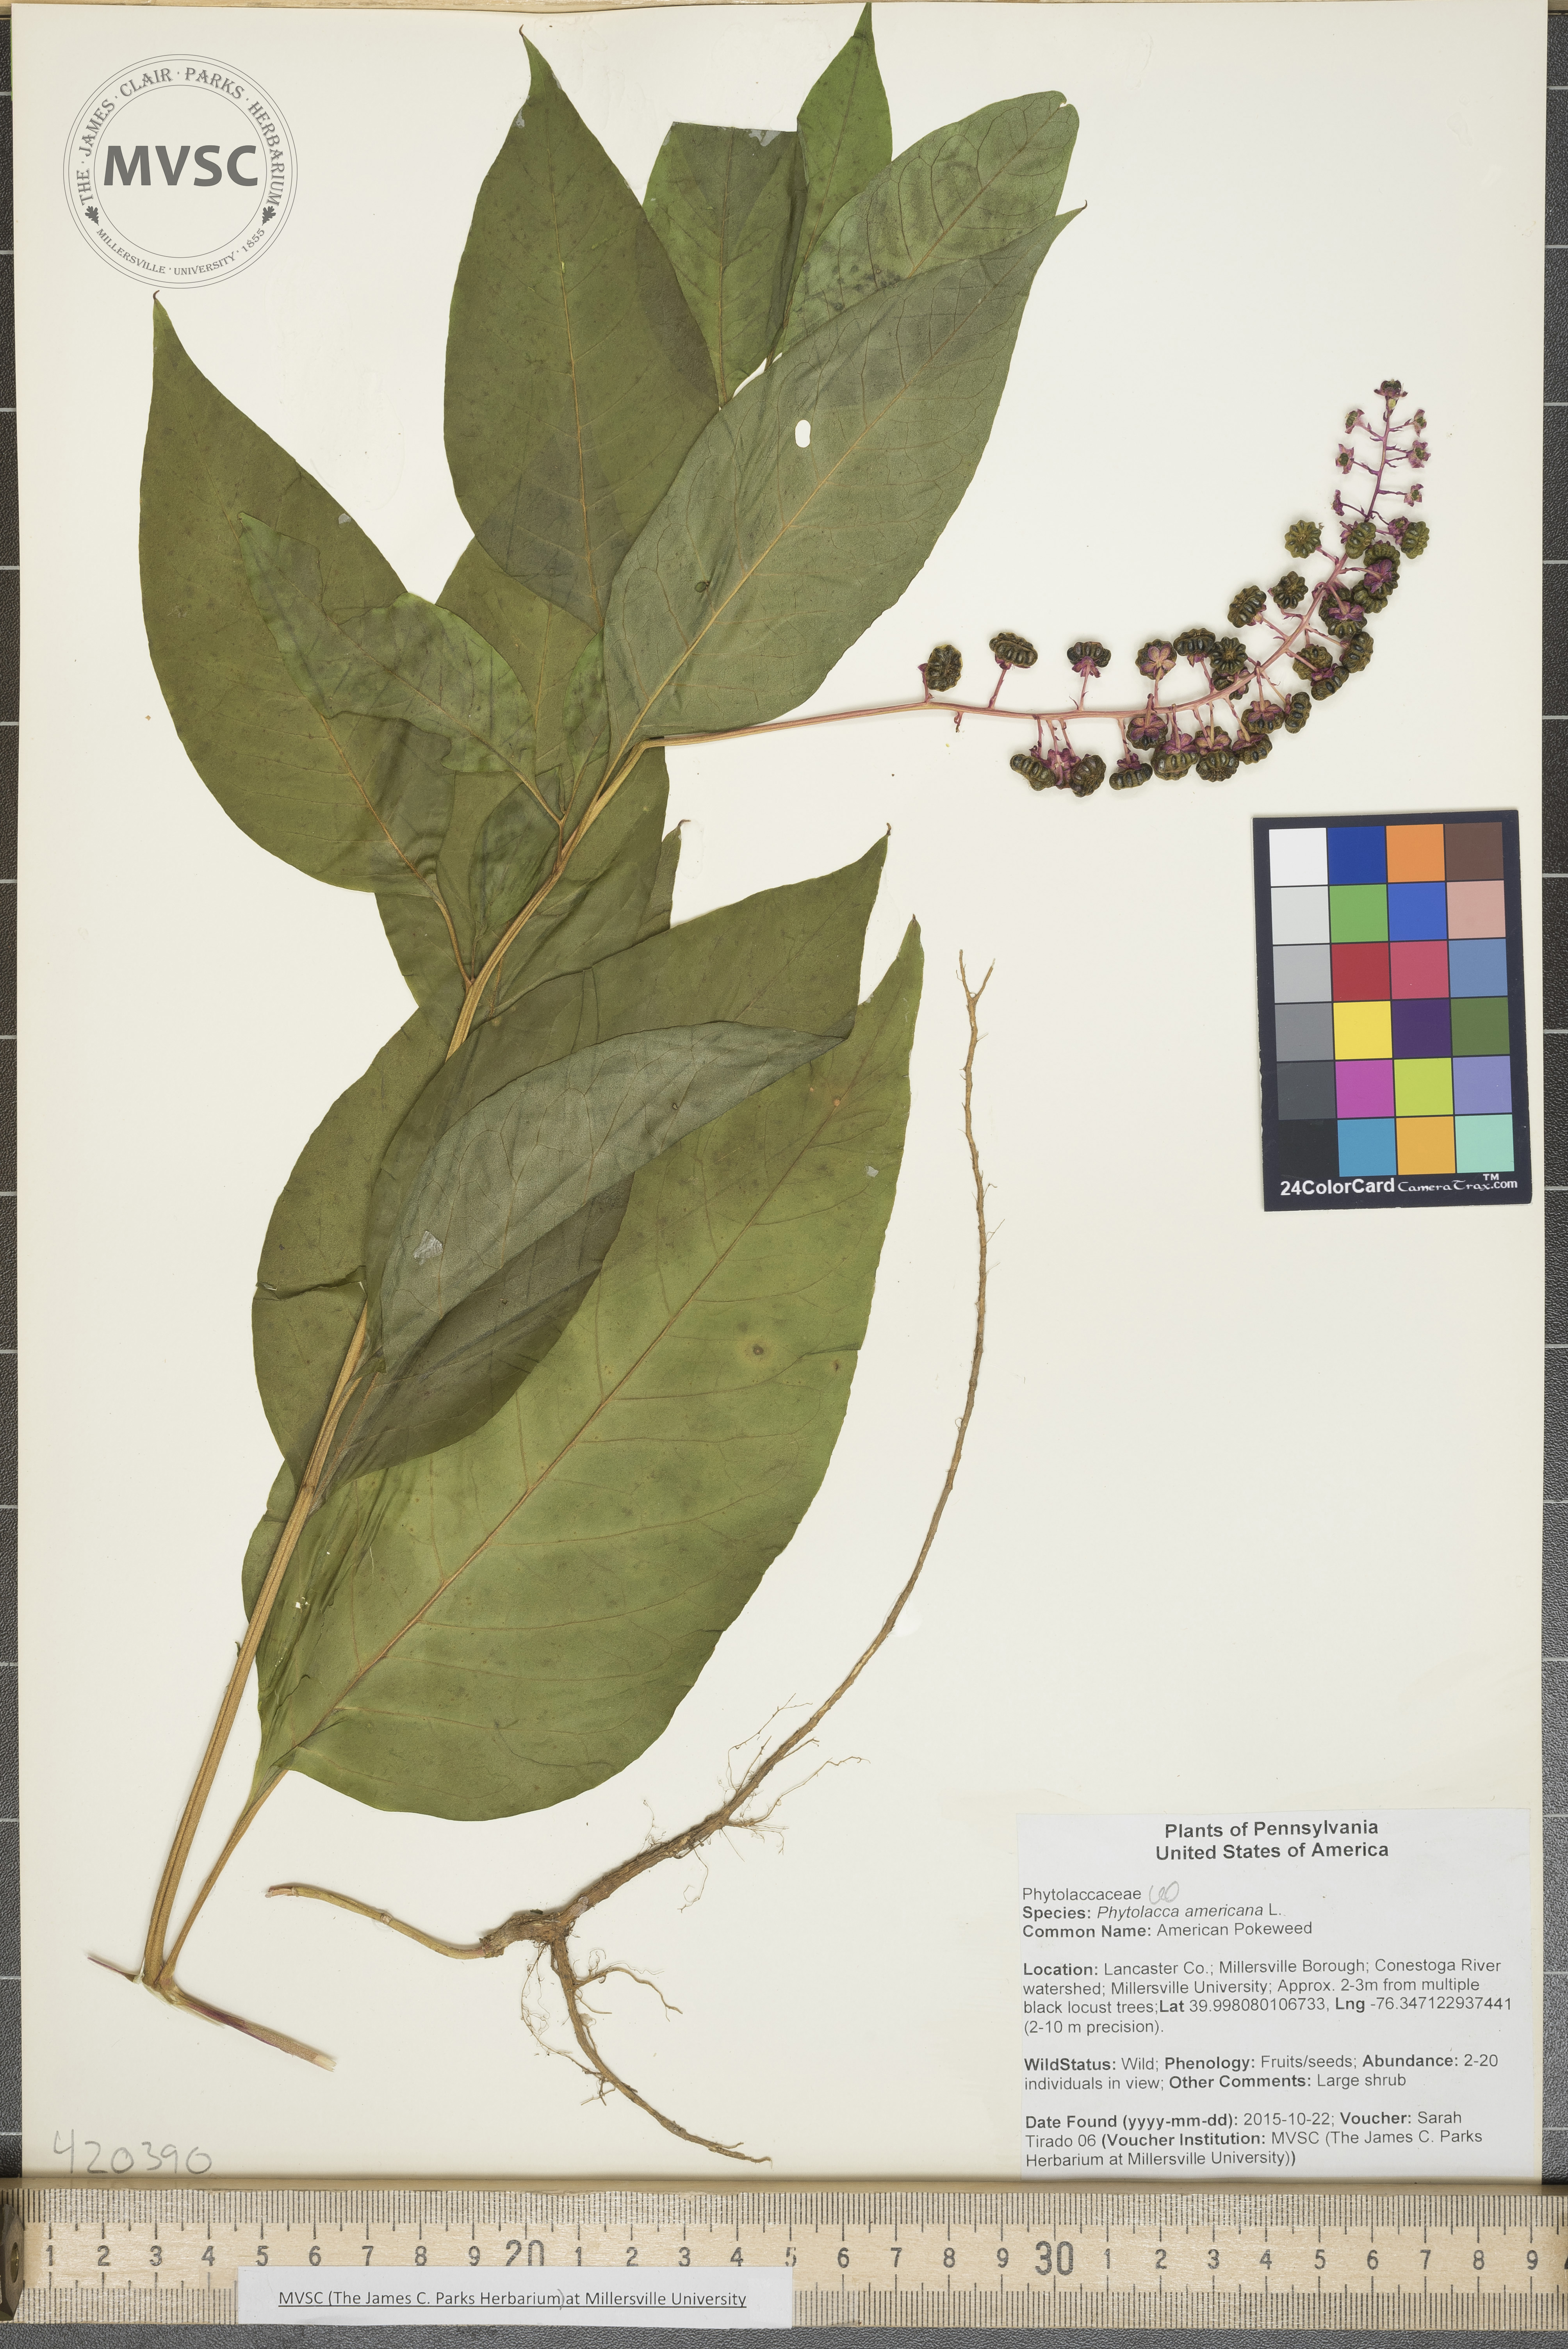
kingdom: Plantae
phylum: Tracheophyta
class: Magnoliopsida
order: Caryophyllales
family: Phytolaccaceae
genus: Phytolacca
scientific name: Phytolacca americana
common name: American Pokeweed
